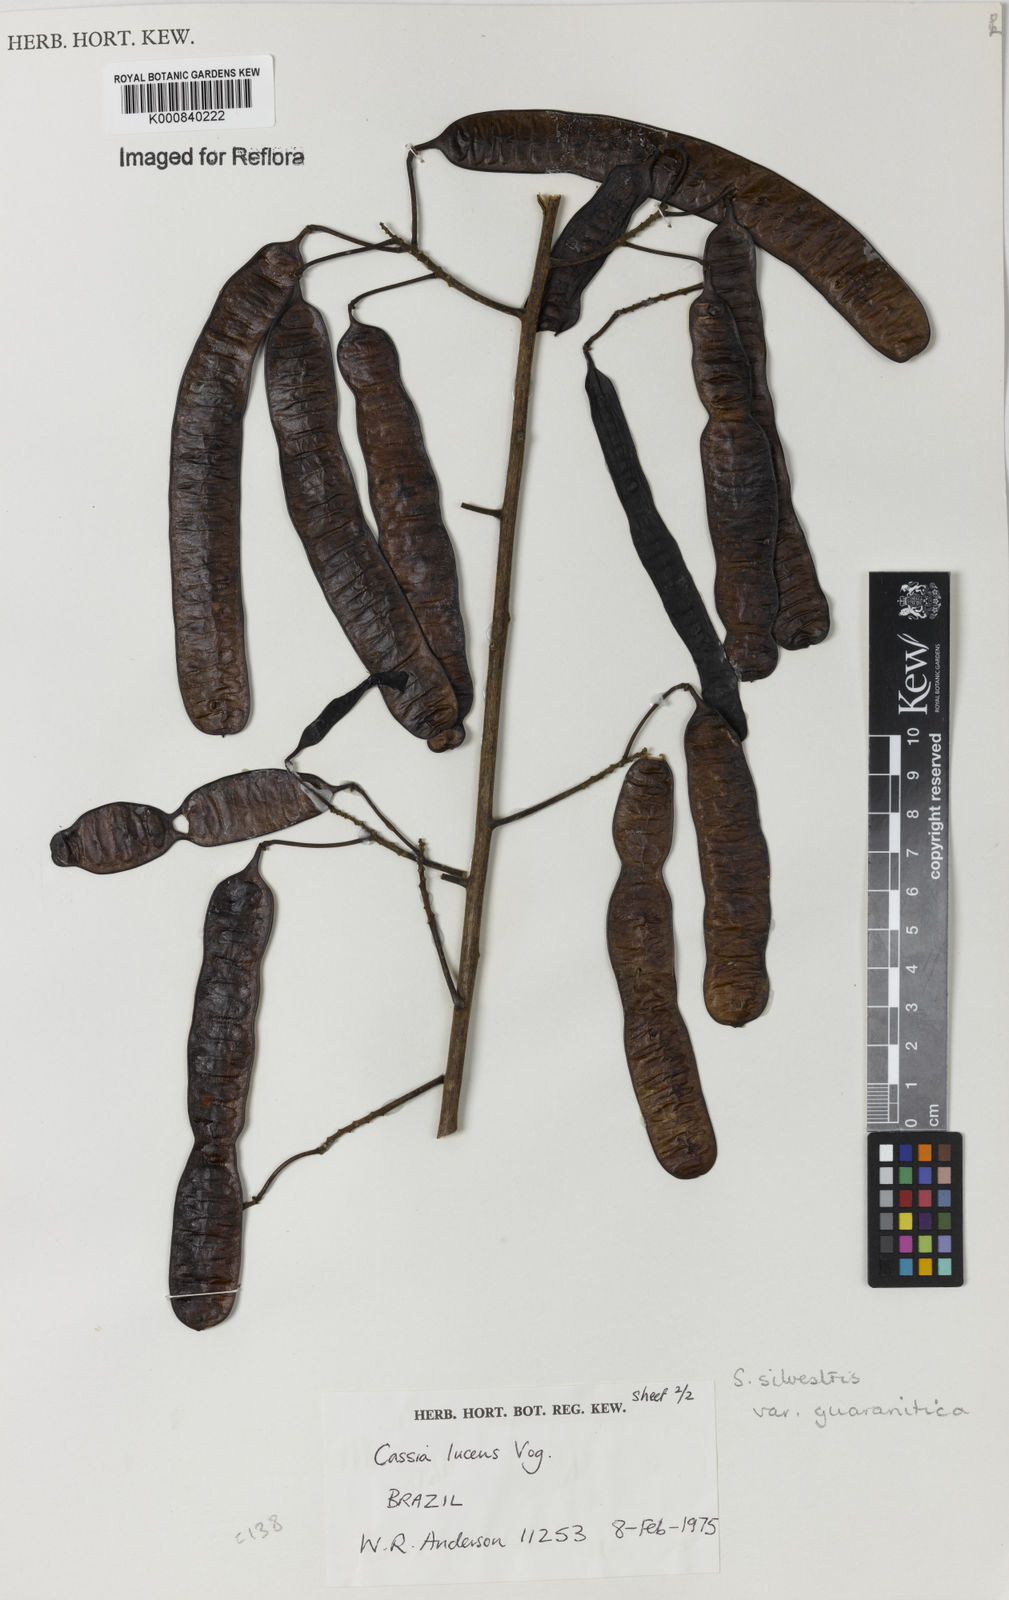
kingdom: Plantae
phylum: Tracheophyta
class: Magnoliopsida
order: Fabales
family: Fabaceae
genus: Senna
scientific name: Senna silvestris
